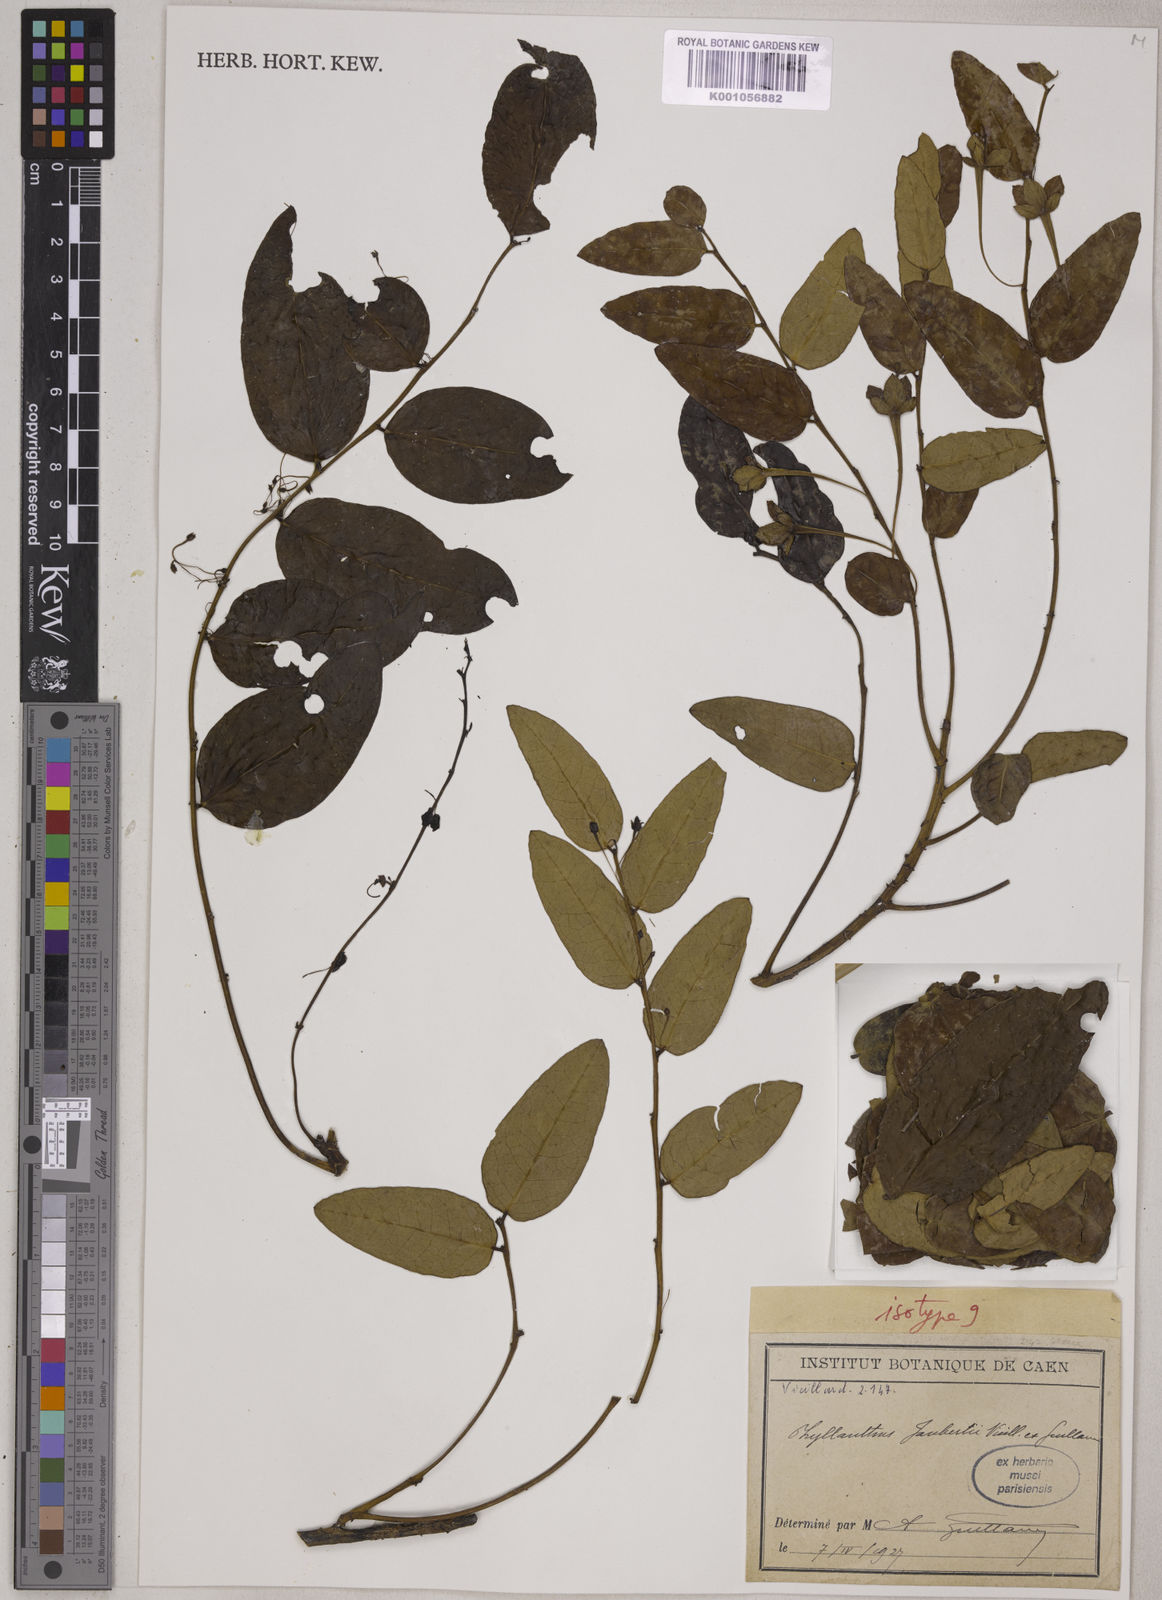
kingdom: Plantae
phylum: Tracheophyta
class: Magnoliopsida
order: Malpighiales
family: Phyllanthaceae
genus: Phyllanthus
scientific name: Phyllanthus jaubertii
